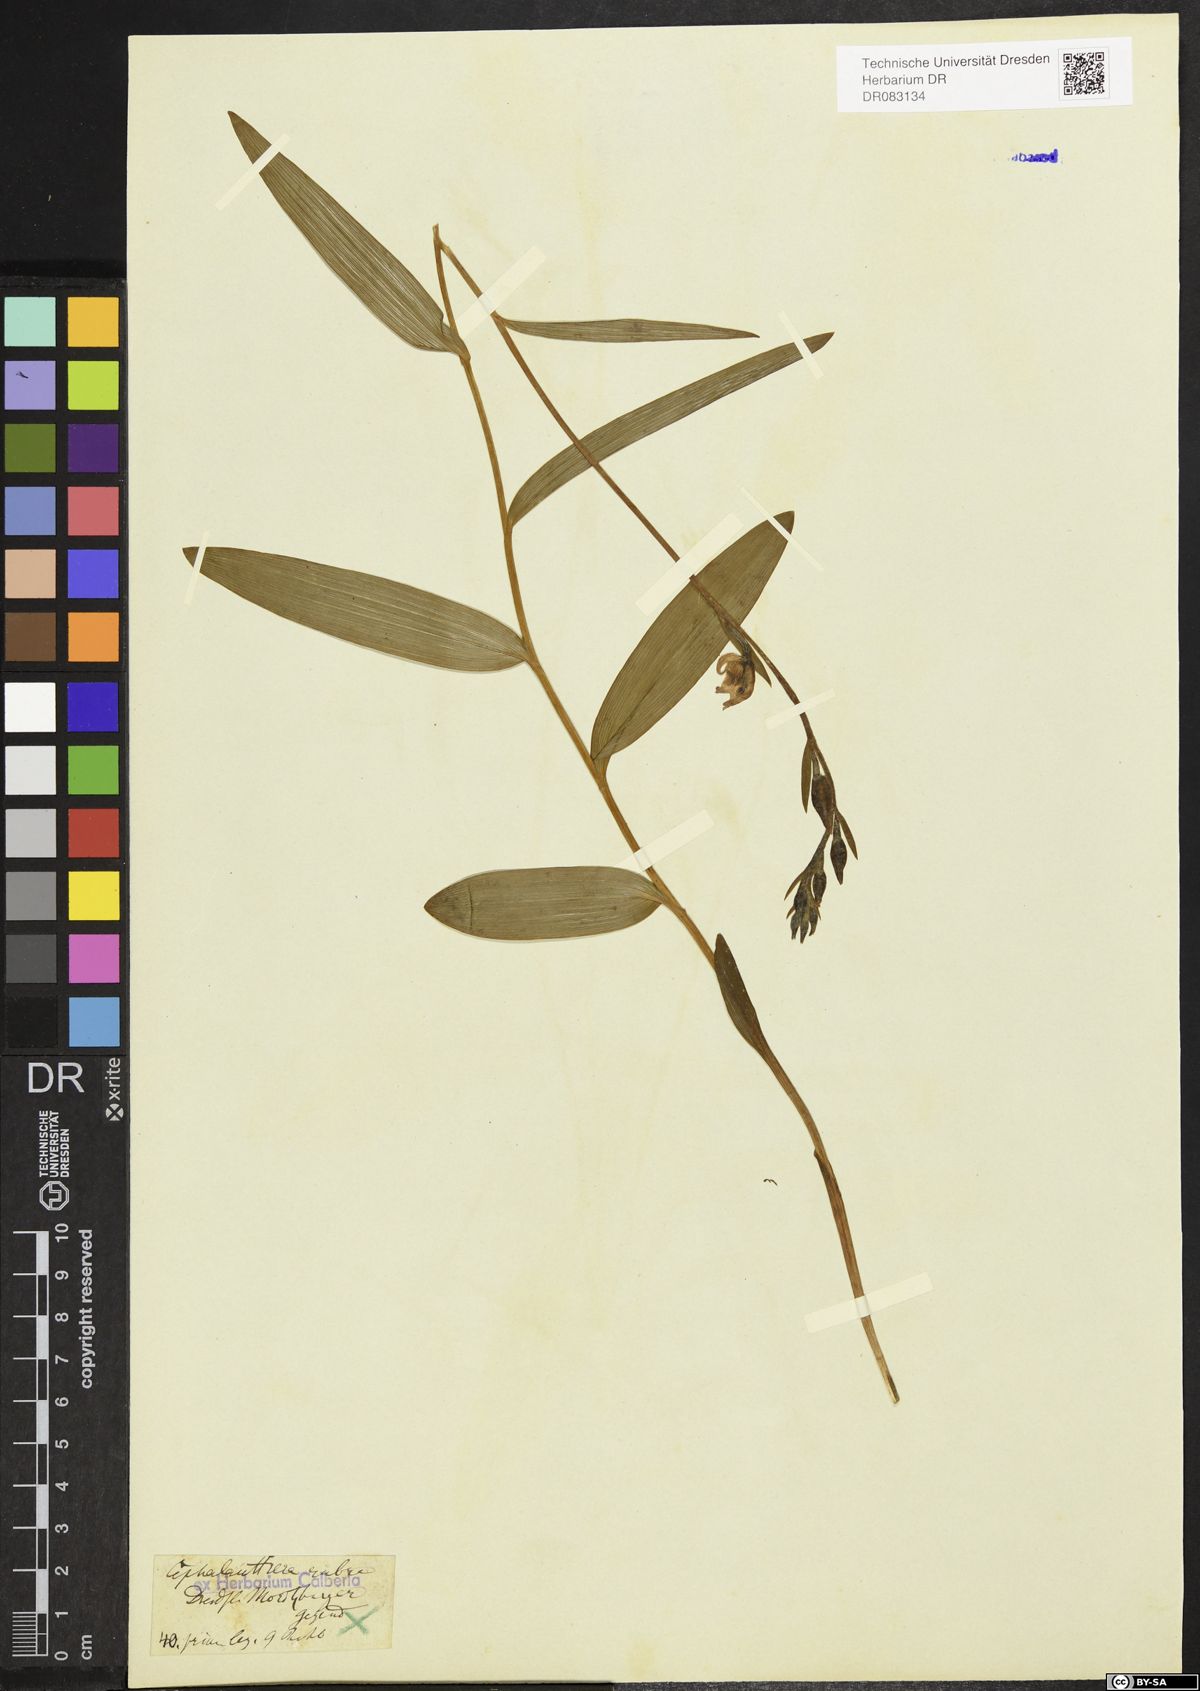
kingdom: Plantae
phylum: Tracheophyta
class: Liliopsida
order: Asparagales
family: Orchidaceae
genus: Cephalanthera
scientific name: Cephalanthera rubra
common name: Red helleborine
